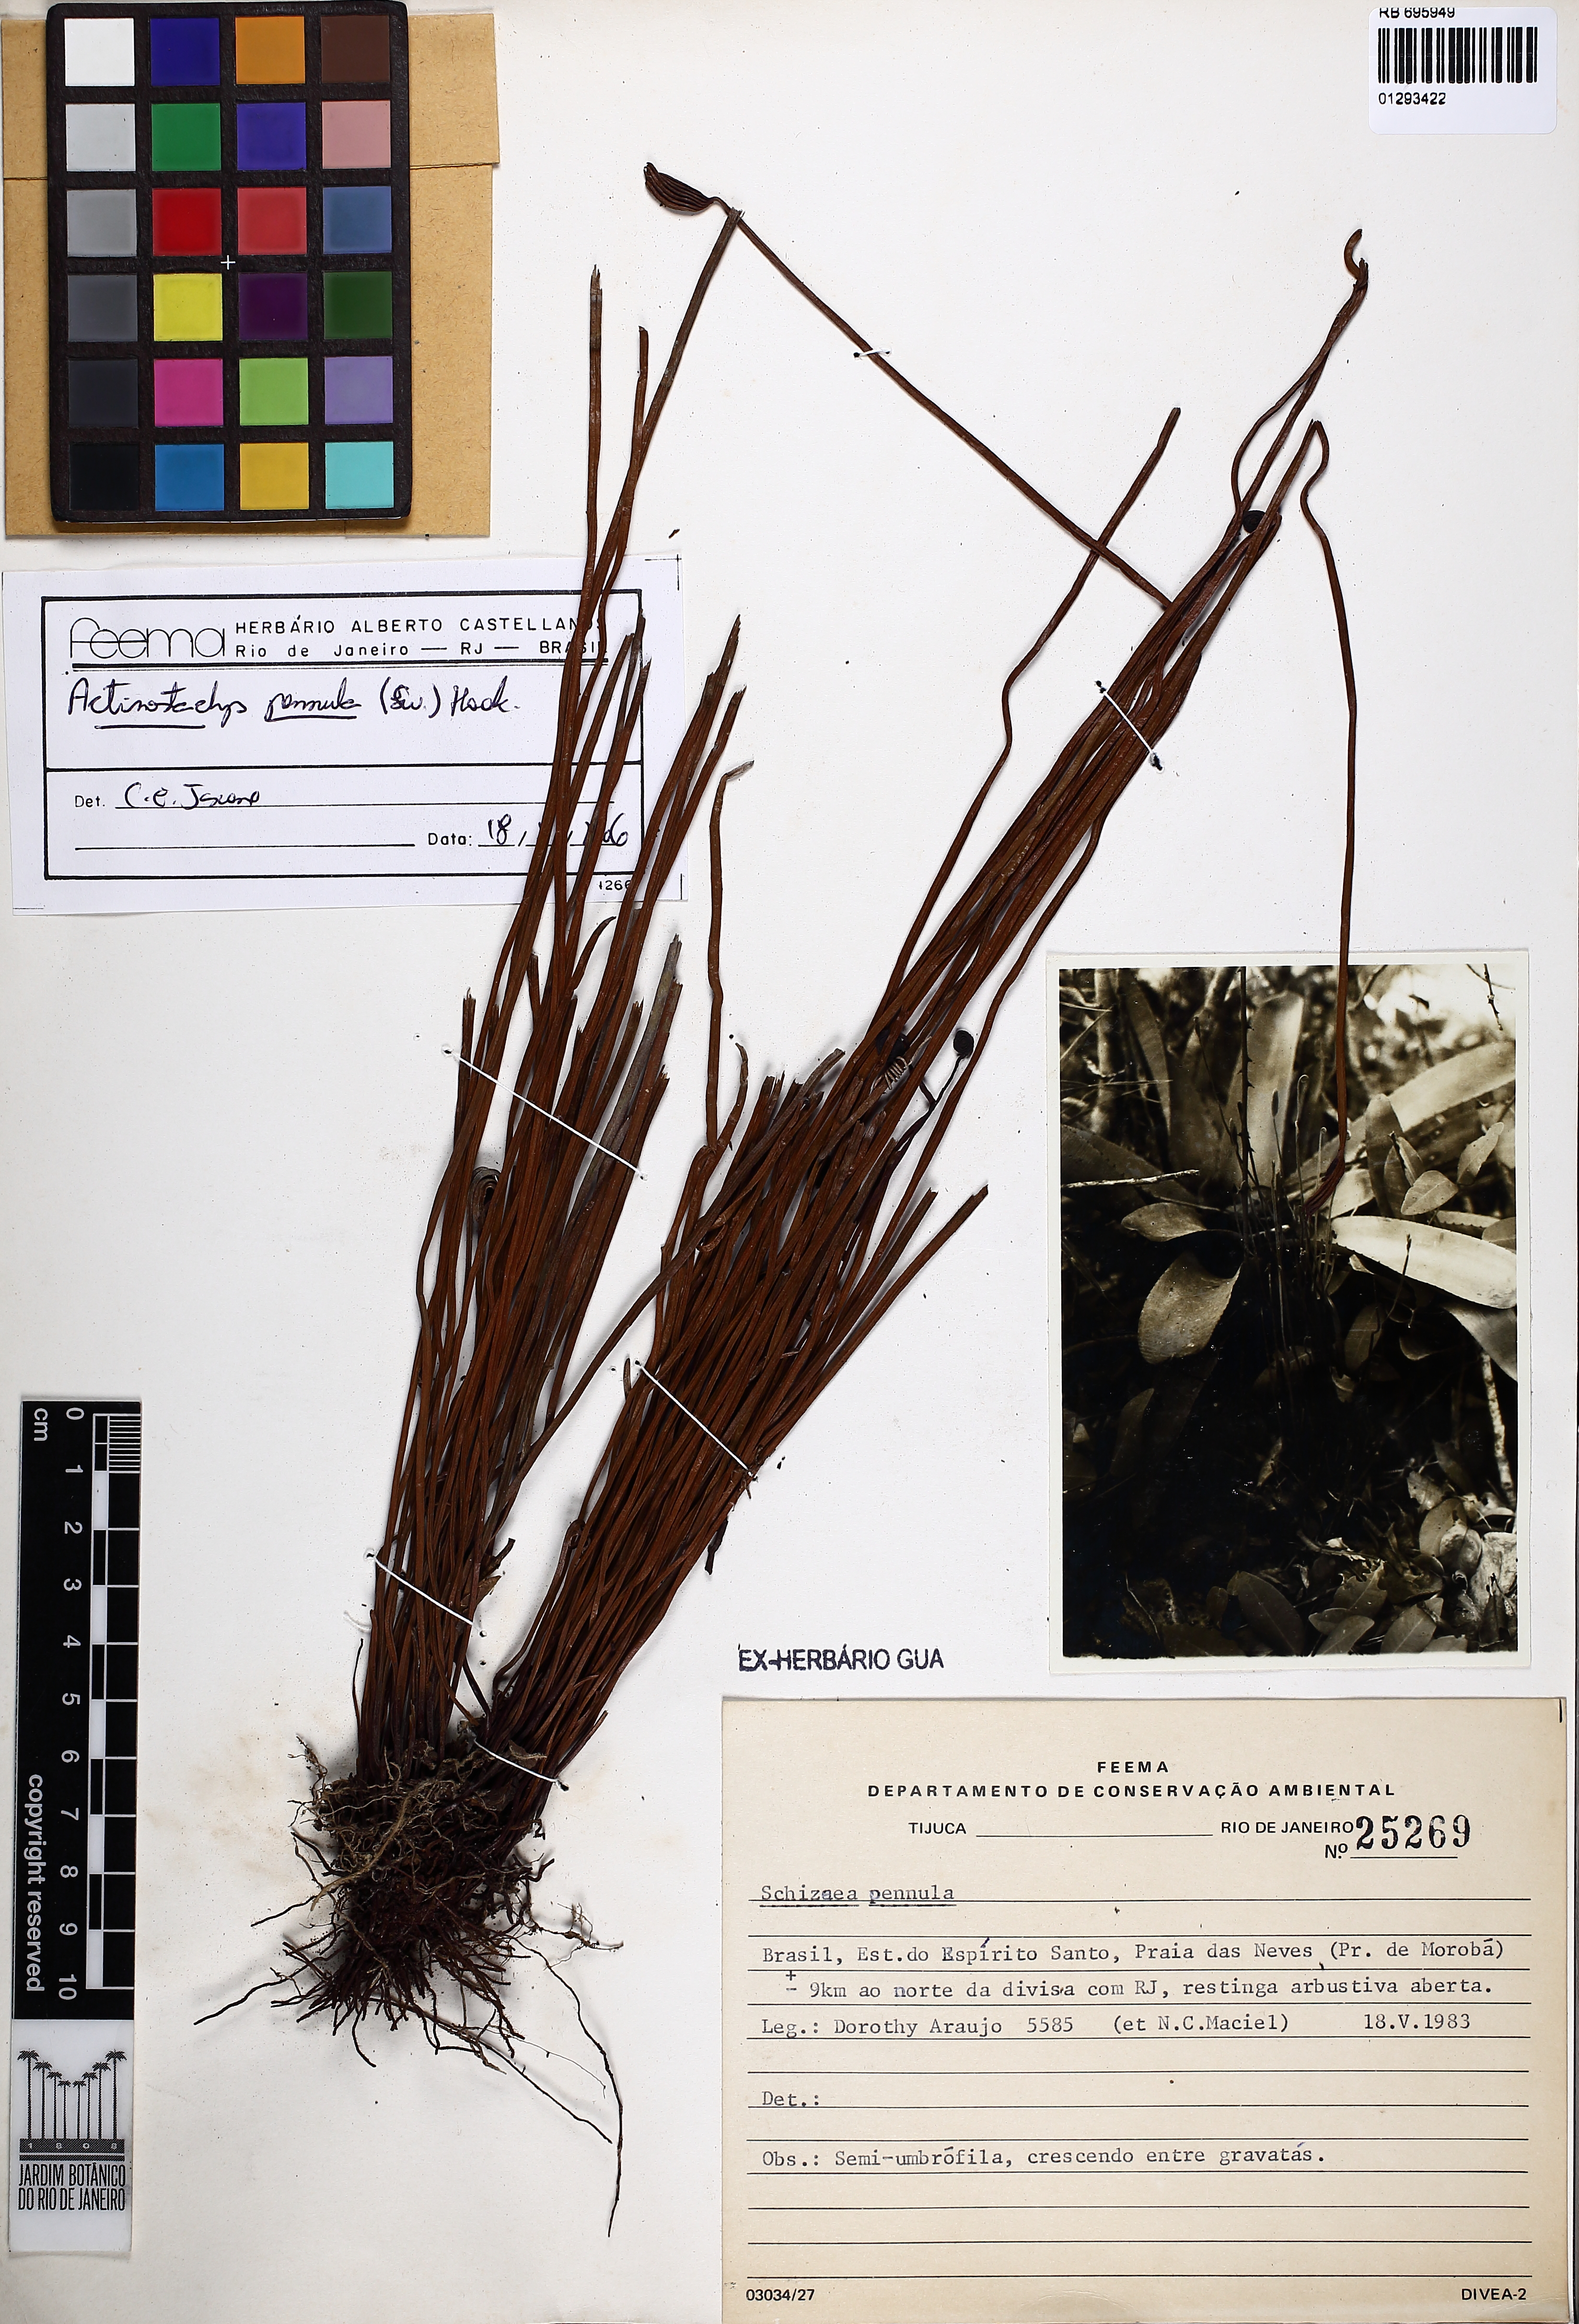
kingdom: Plantae
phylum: Tracheophyta
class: Polypodiopsida
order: Schizaeales
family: Schizaeaceae
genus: Actinostachys
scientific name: Actinostachys pennula
